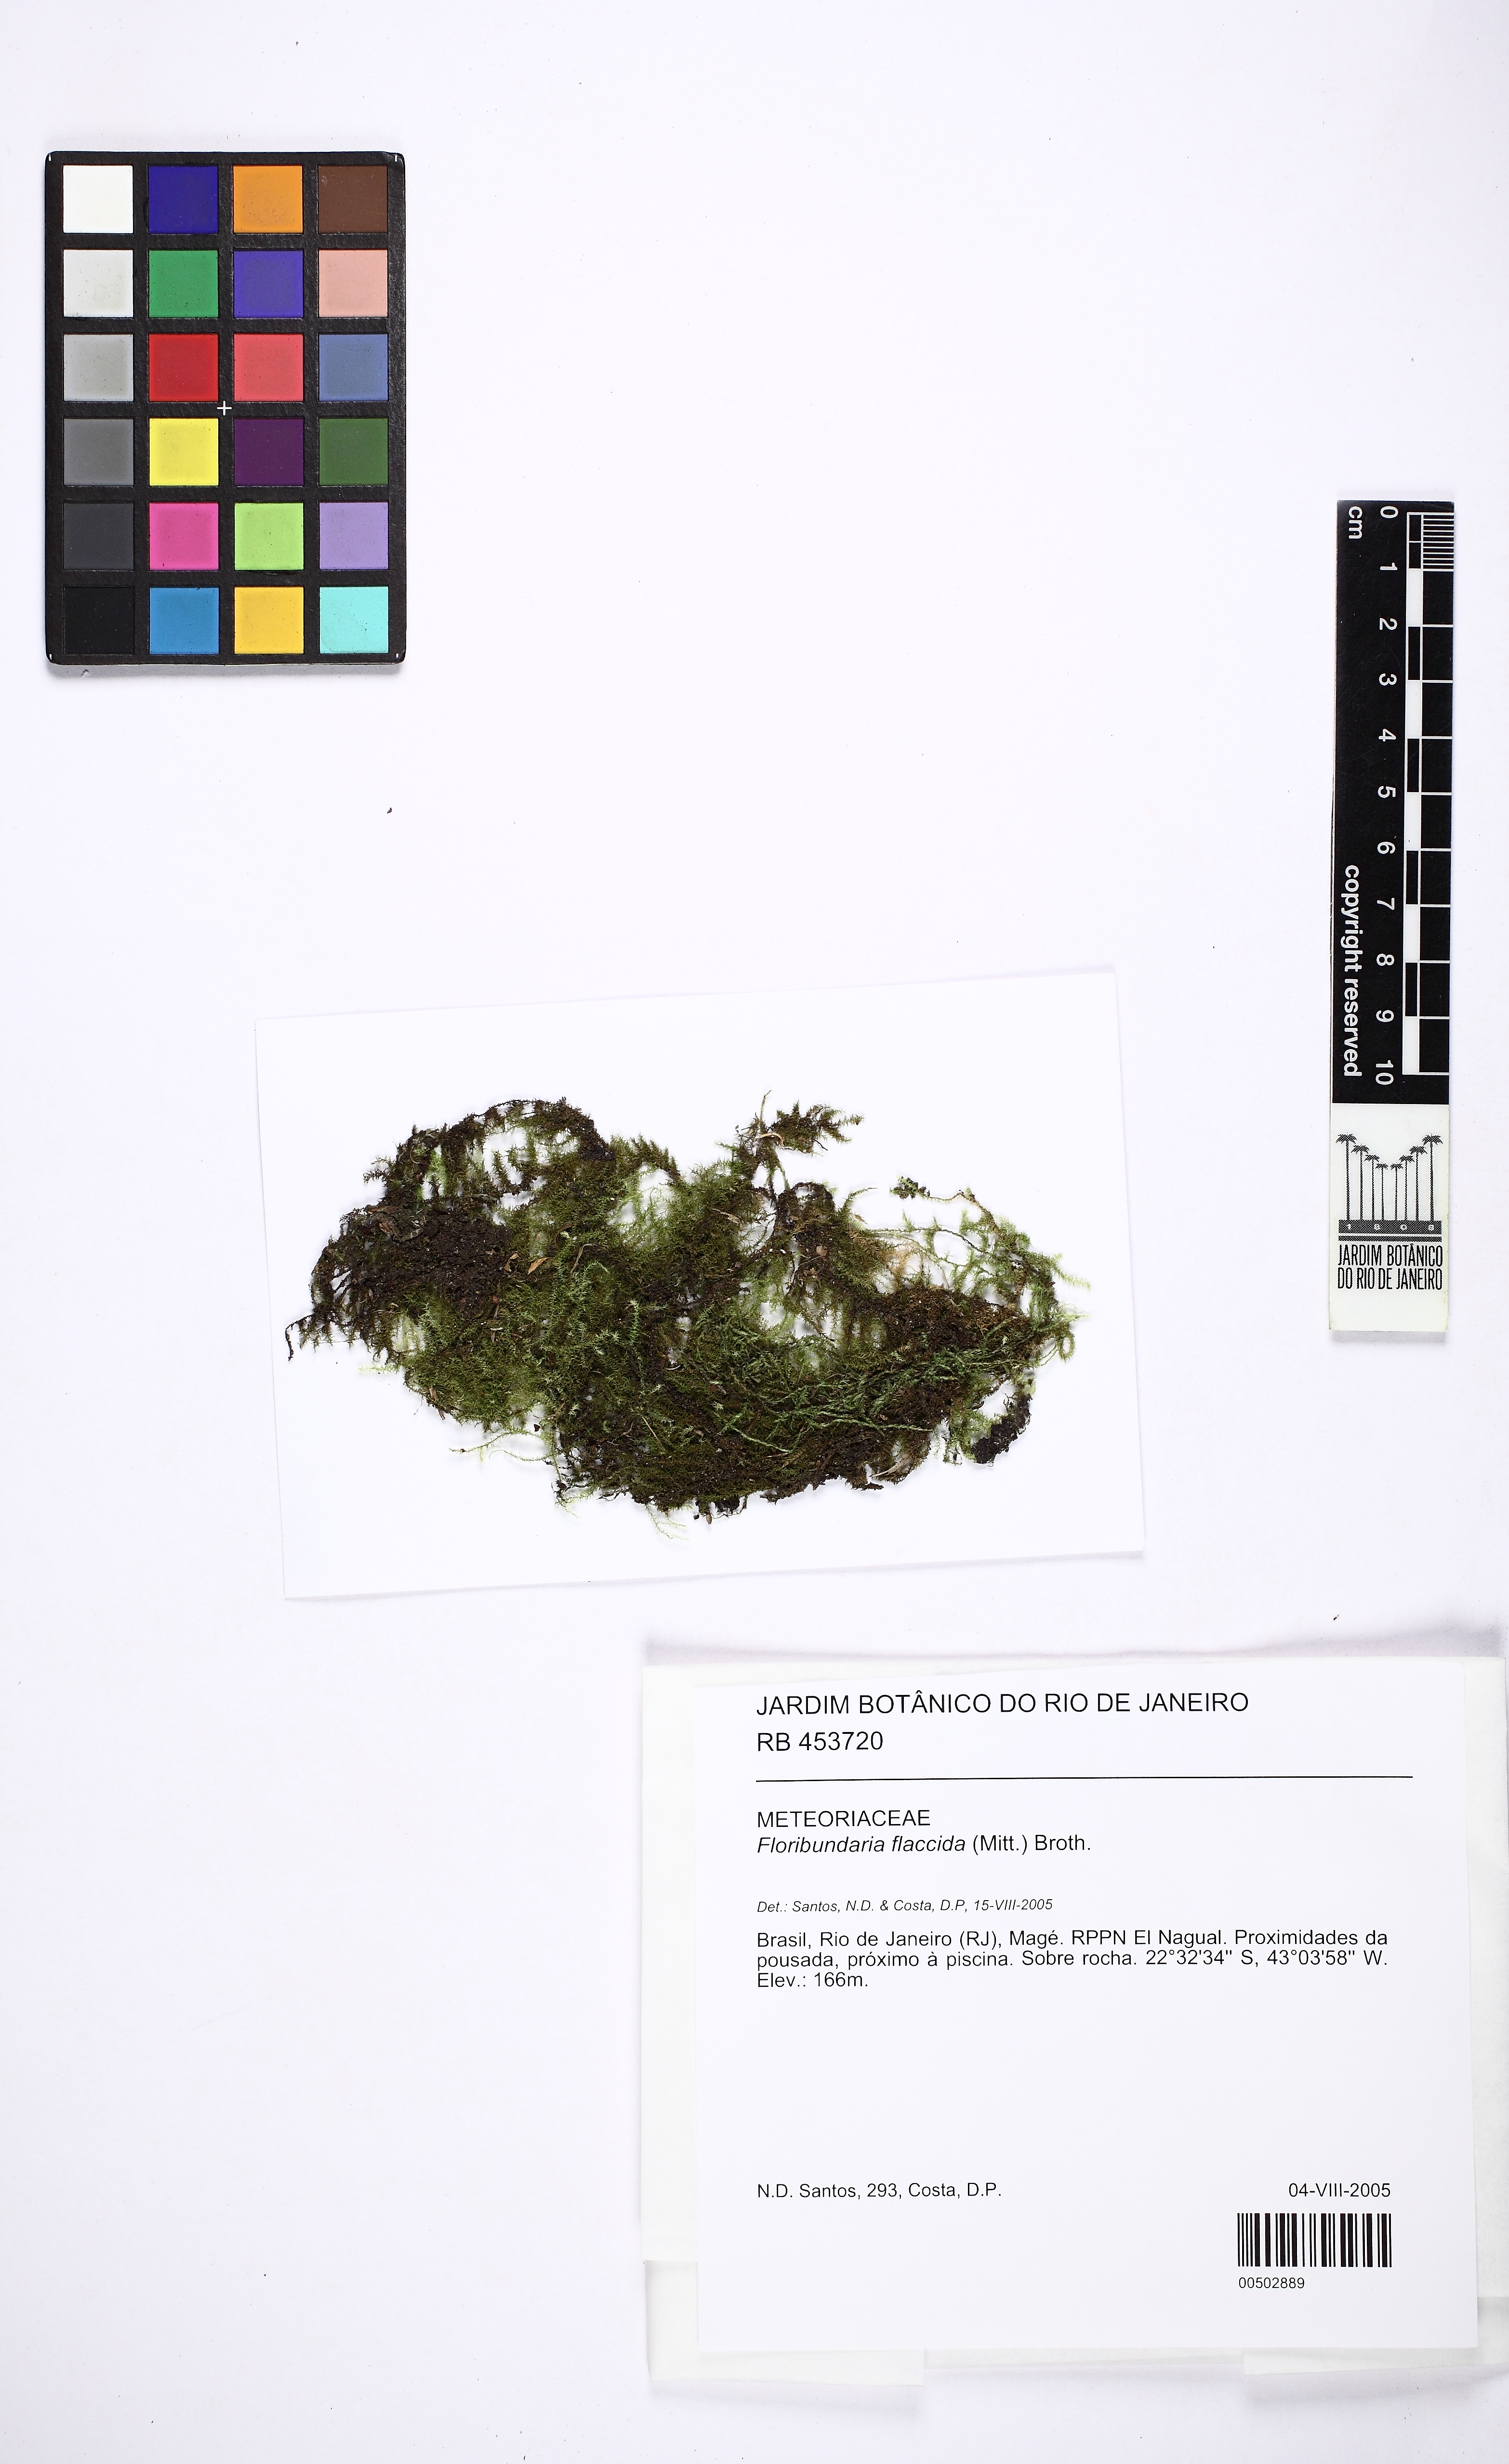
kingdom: Plantae
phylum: Bryophyta
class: Bryopsida
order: Hypnales
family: Meteoriaceae
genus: Floribundaria
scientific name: Floribundaria flaccida
